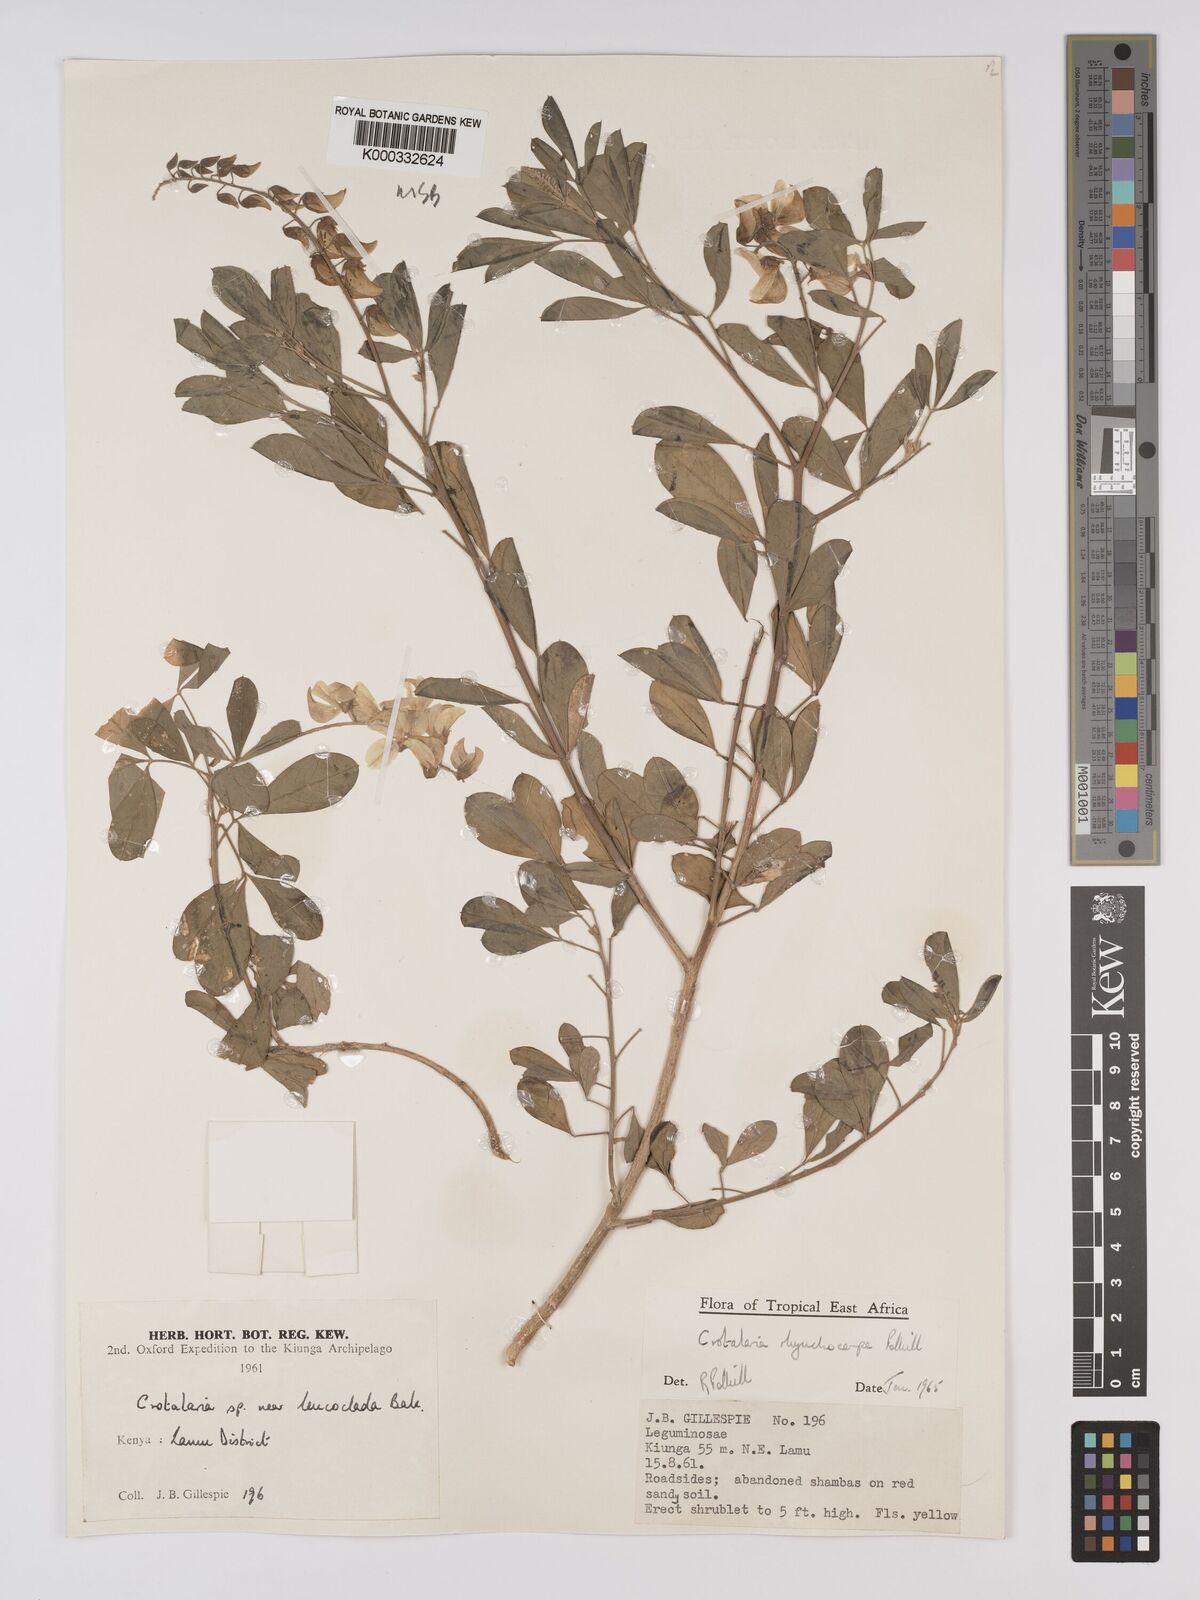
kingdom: Plantae
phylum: Tracheophyta
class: Magnoliopsida
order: Fabales
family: Fabaceae
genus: Crotalaria
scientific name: Crotalaria rhynchocarpa
